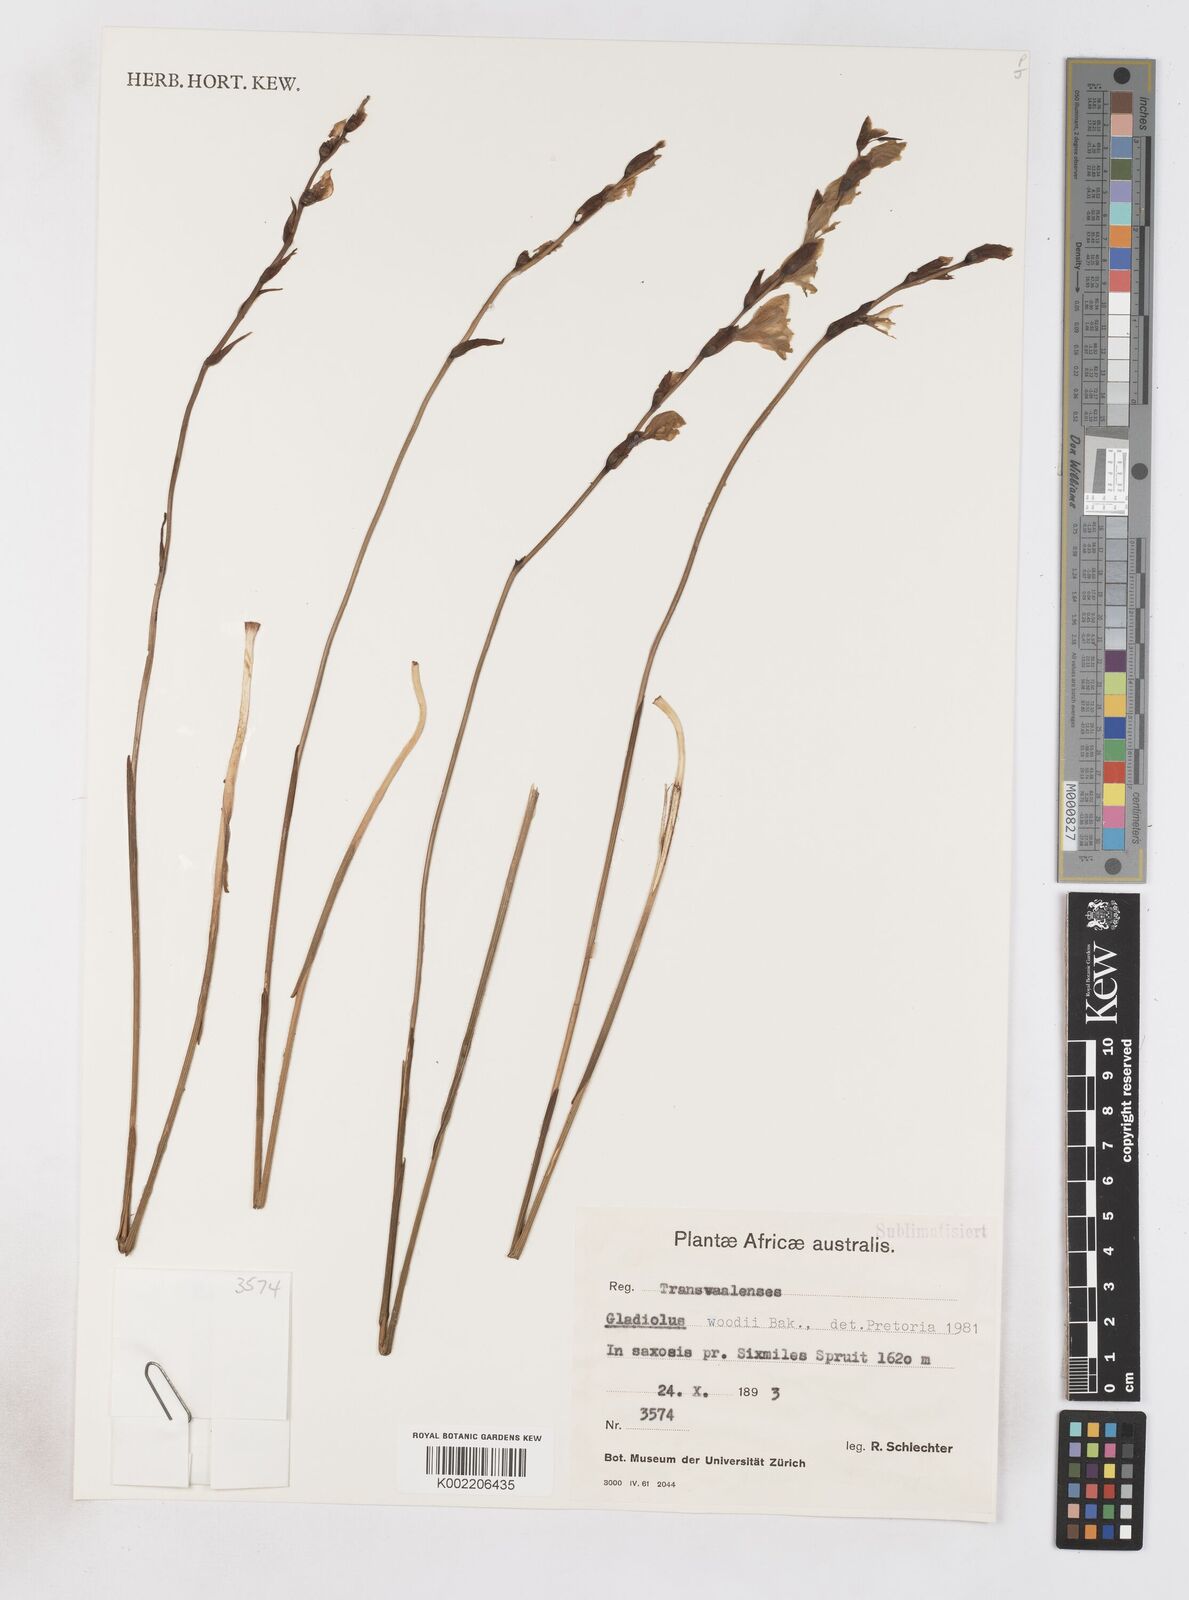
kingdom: Plantae
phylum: Tracheophyta
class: Liliopsida
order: Asparagales
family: Iridaceae
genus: Gladiolus
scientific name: Gladiolus woodii
